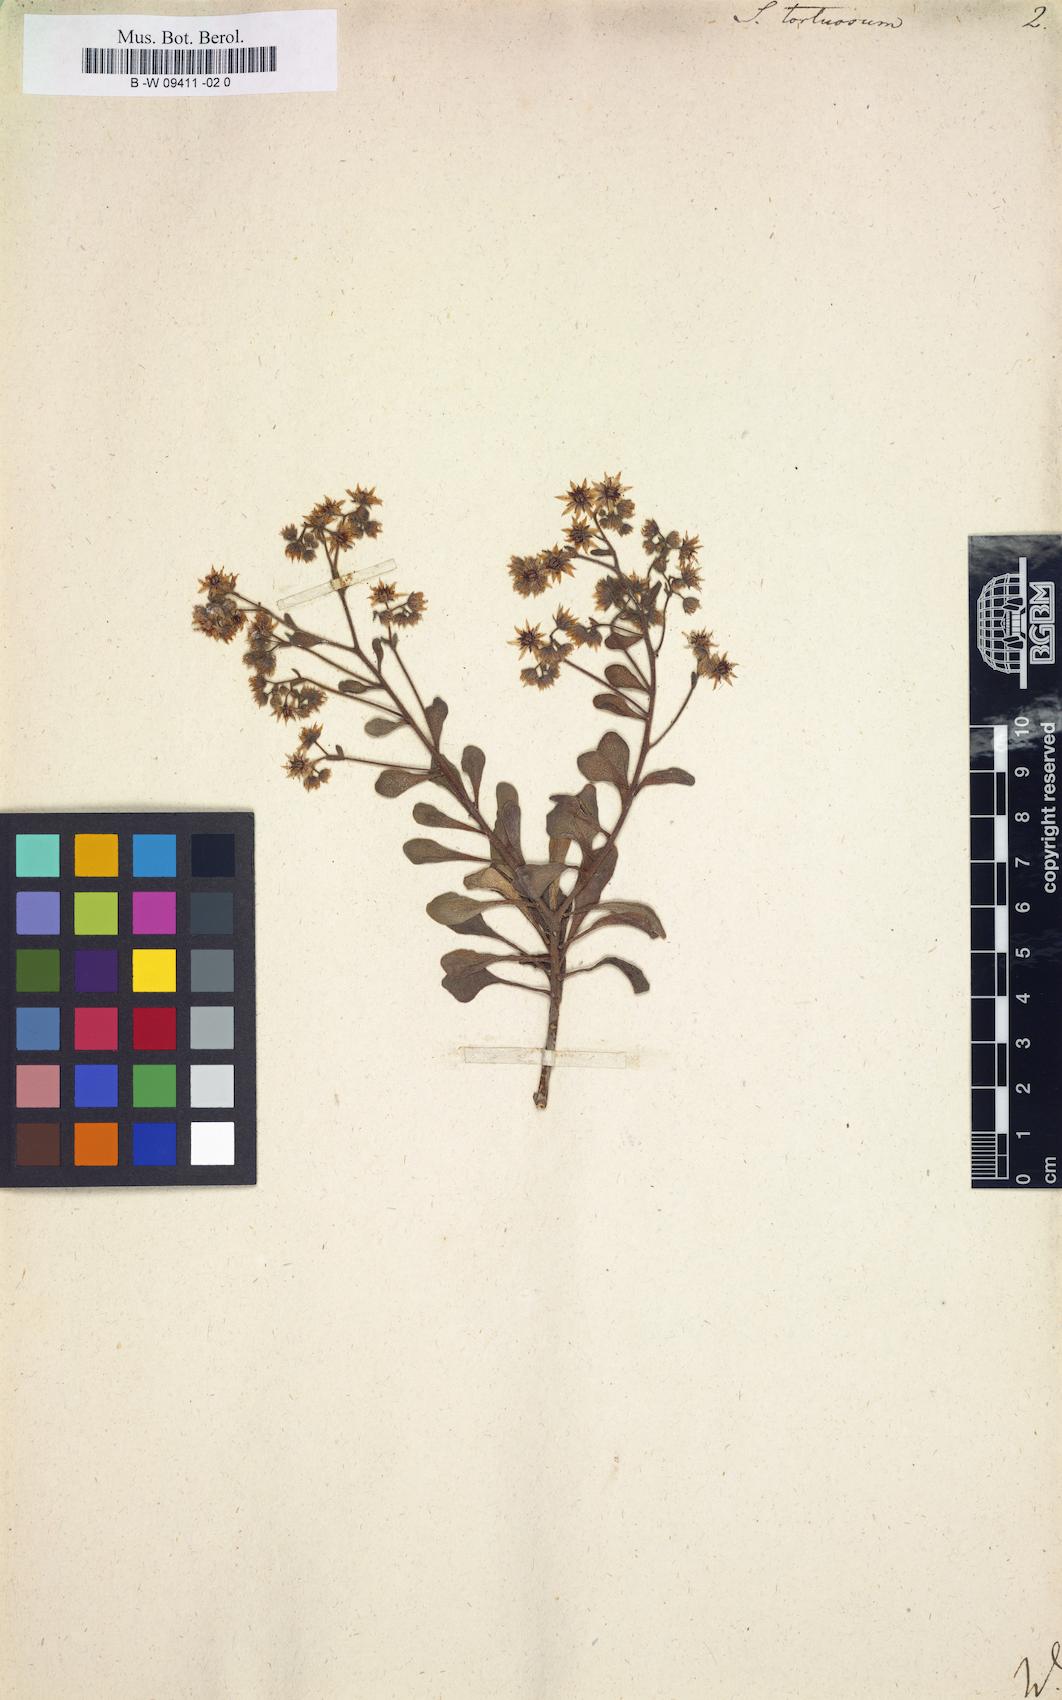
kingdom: Plantae
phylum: Tracheophyta
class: Magnoliopsida
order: Saxifragales
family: Crassulaceae
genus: Aichryson
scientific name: Aichryson tortuosum
